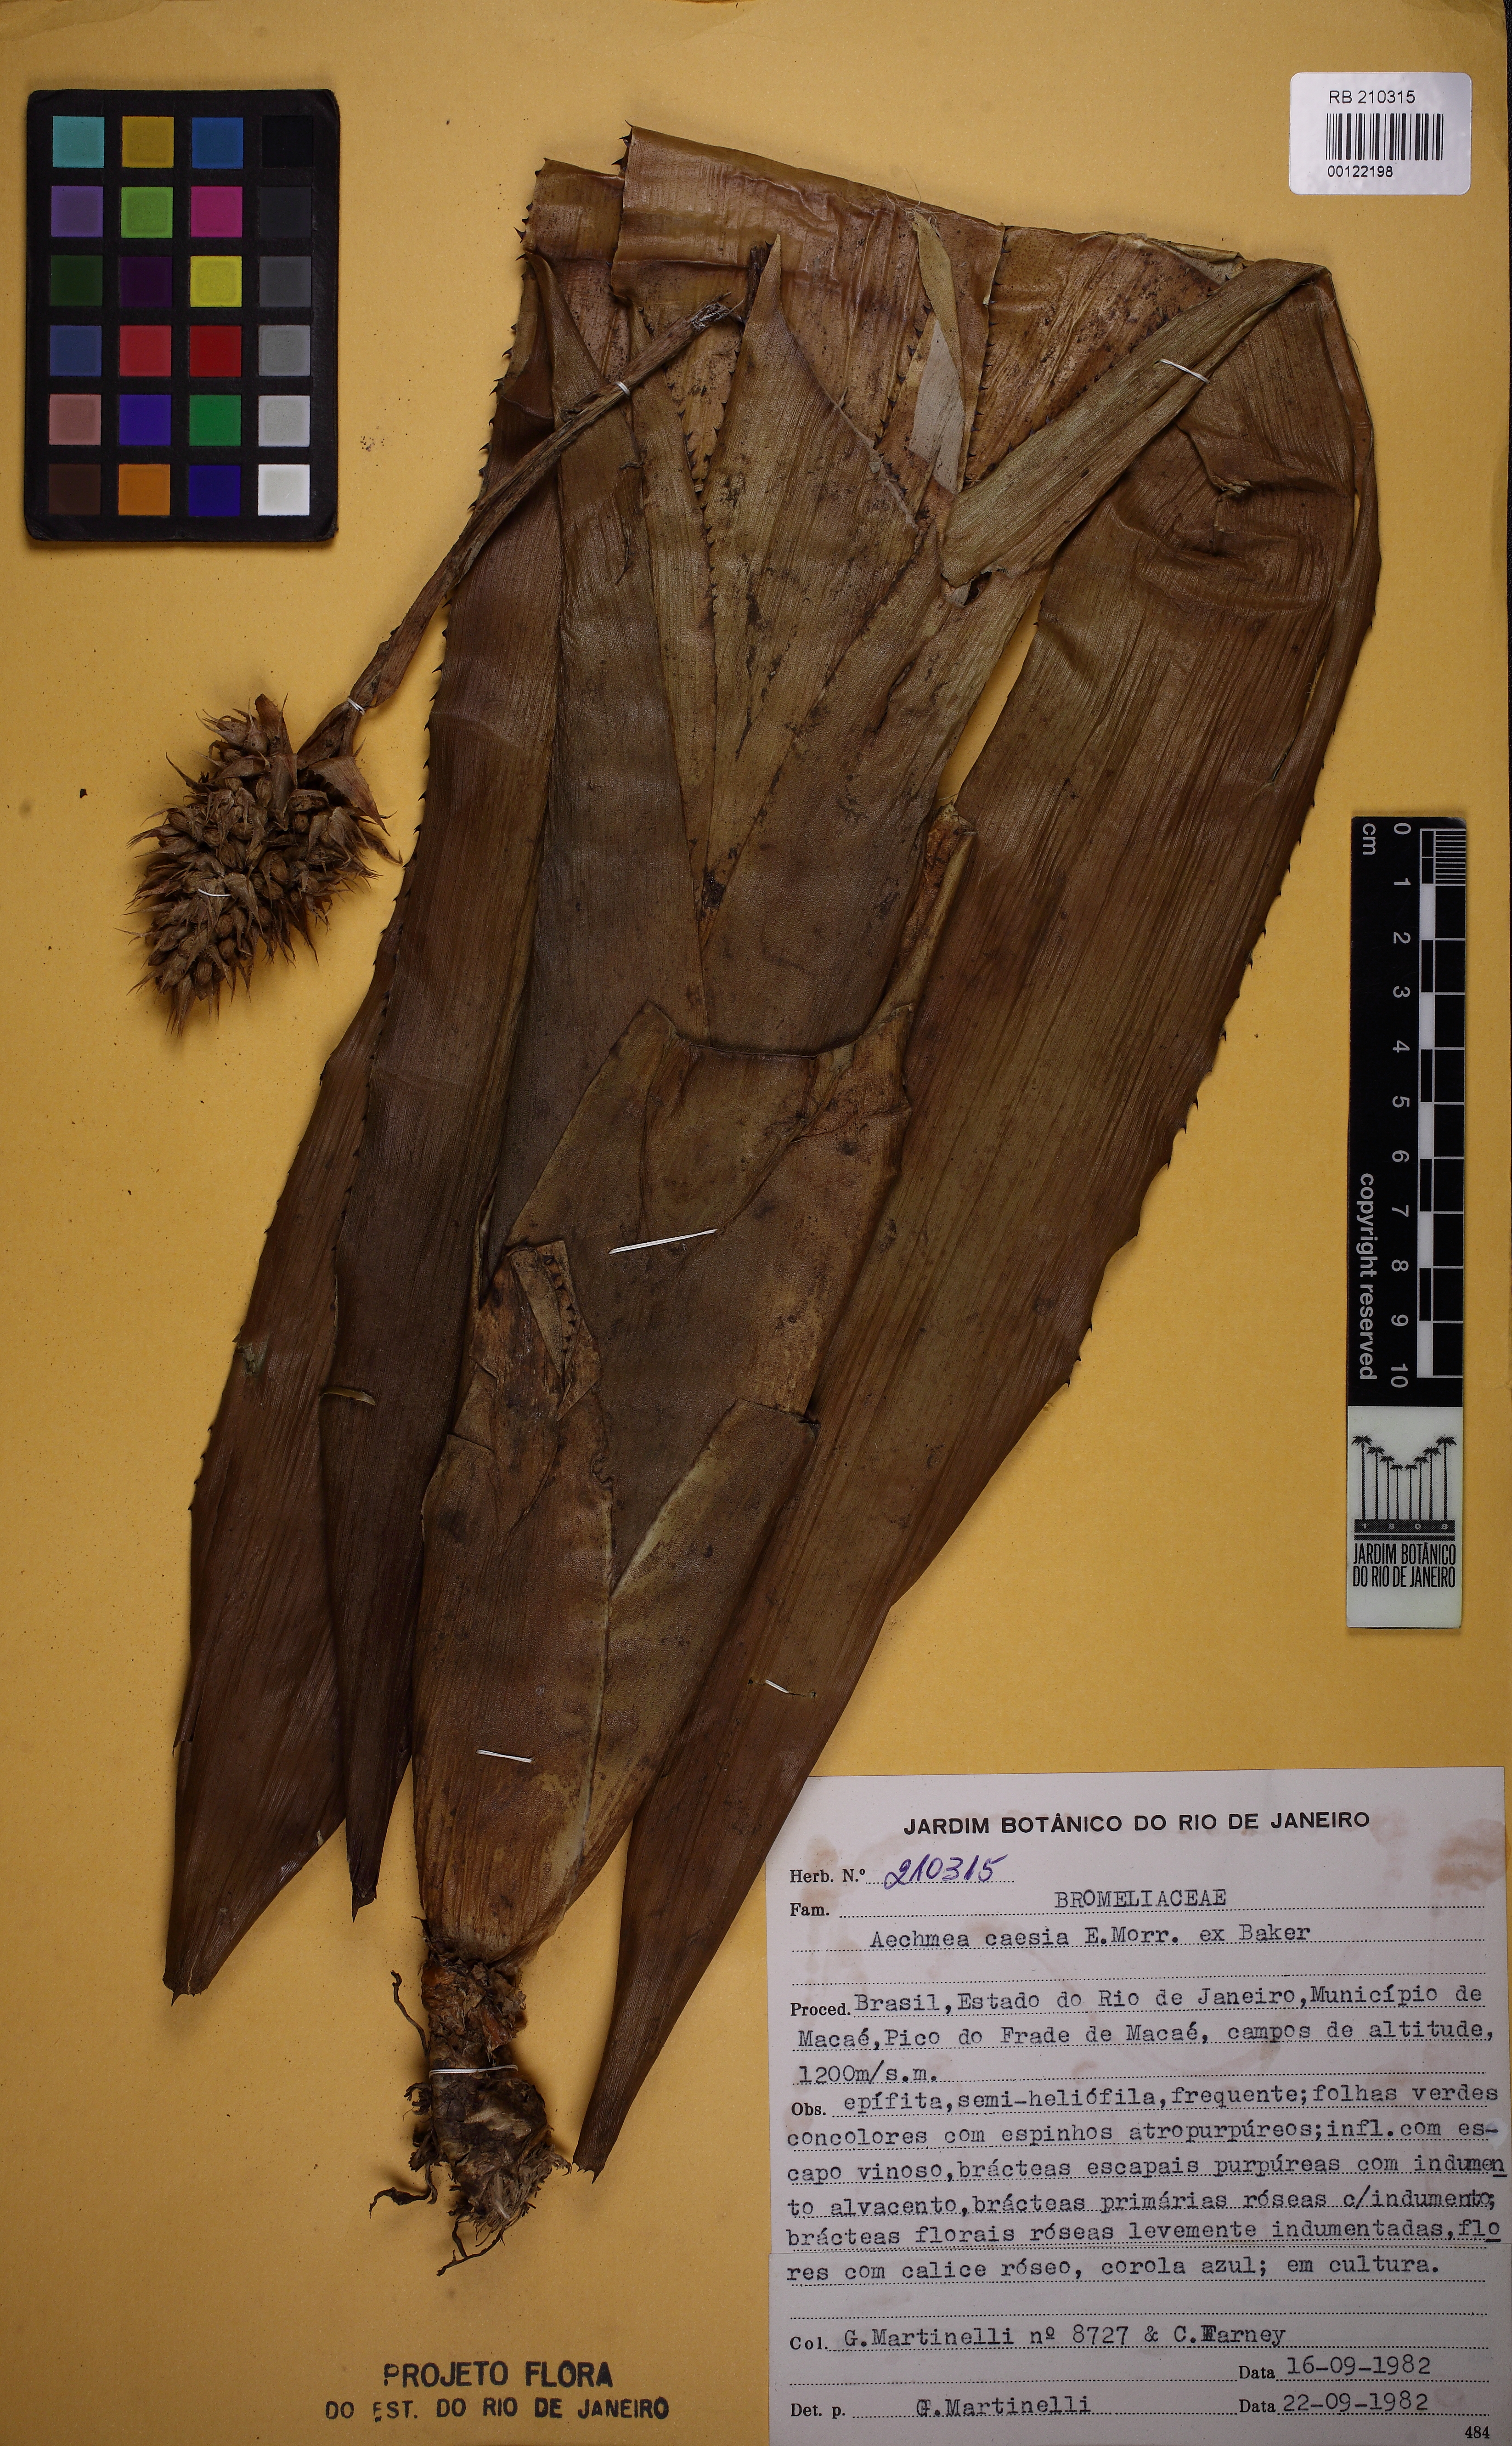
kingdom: Plantae
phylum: Tracheophyta
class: Liliopsida
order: Poales
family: Bromeliaceae
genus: Aechmea
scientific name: Aechmea caesia
